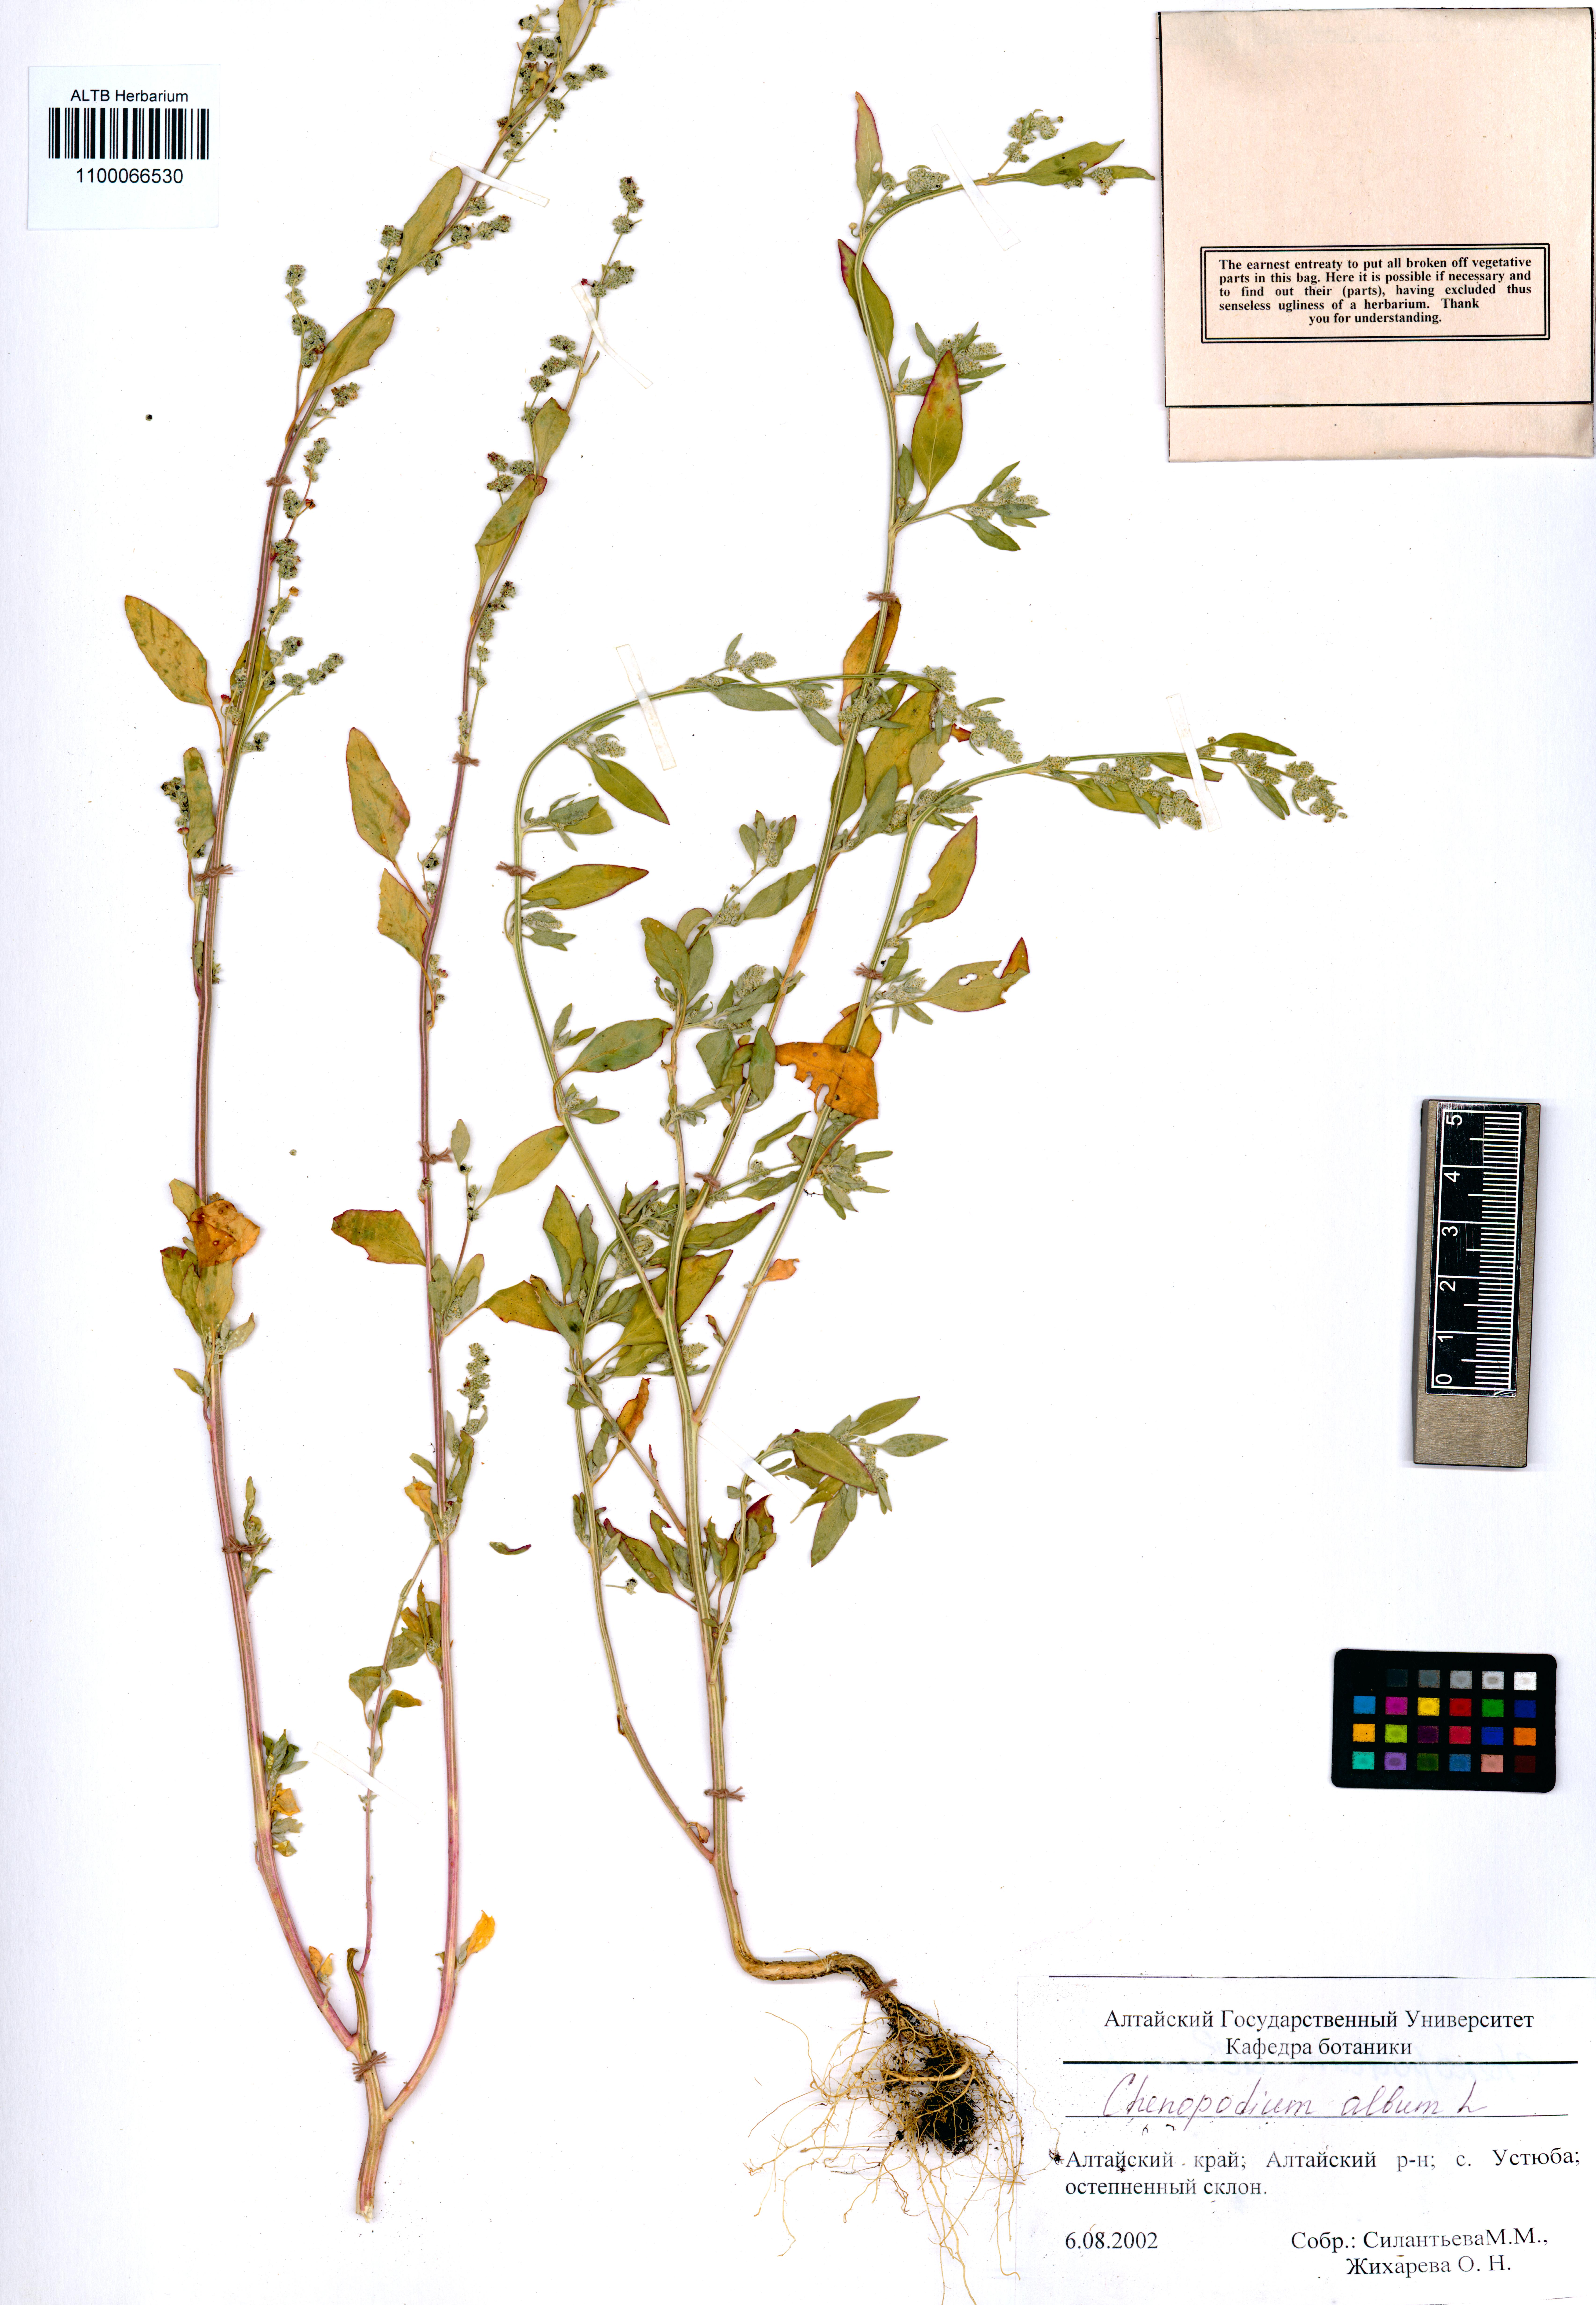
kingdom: Plantae
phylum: Tracheophyta
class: Magnoliopsida
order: Caryophyllales
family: Amaranthaceae
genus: Chenopodium
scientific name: Chenopodium album
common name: Fat-hen
